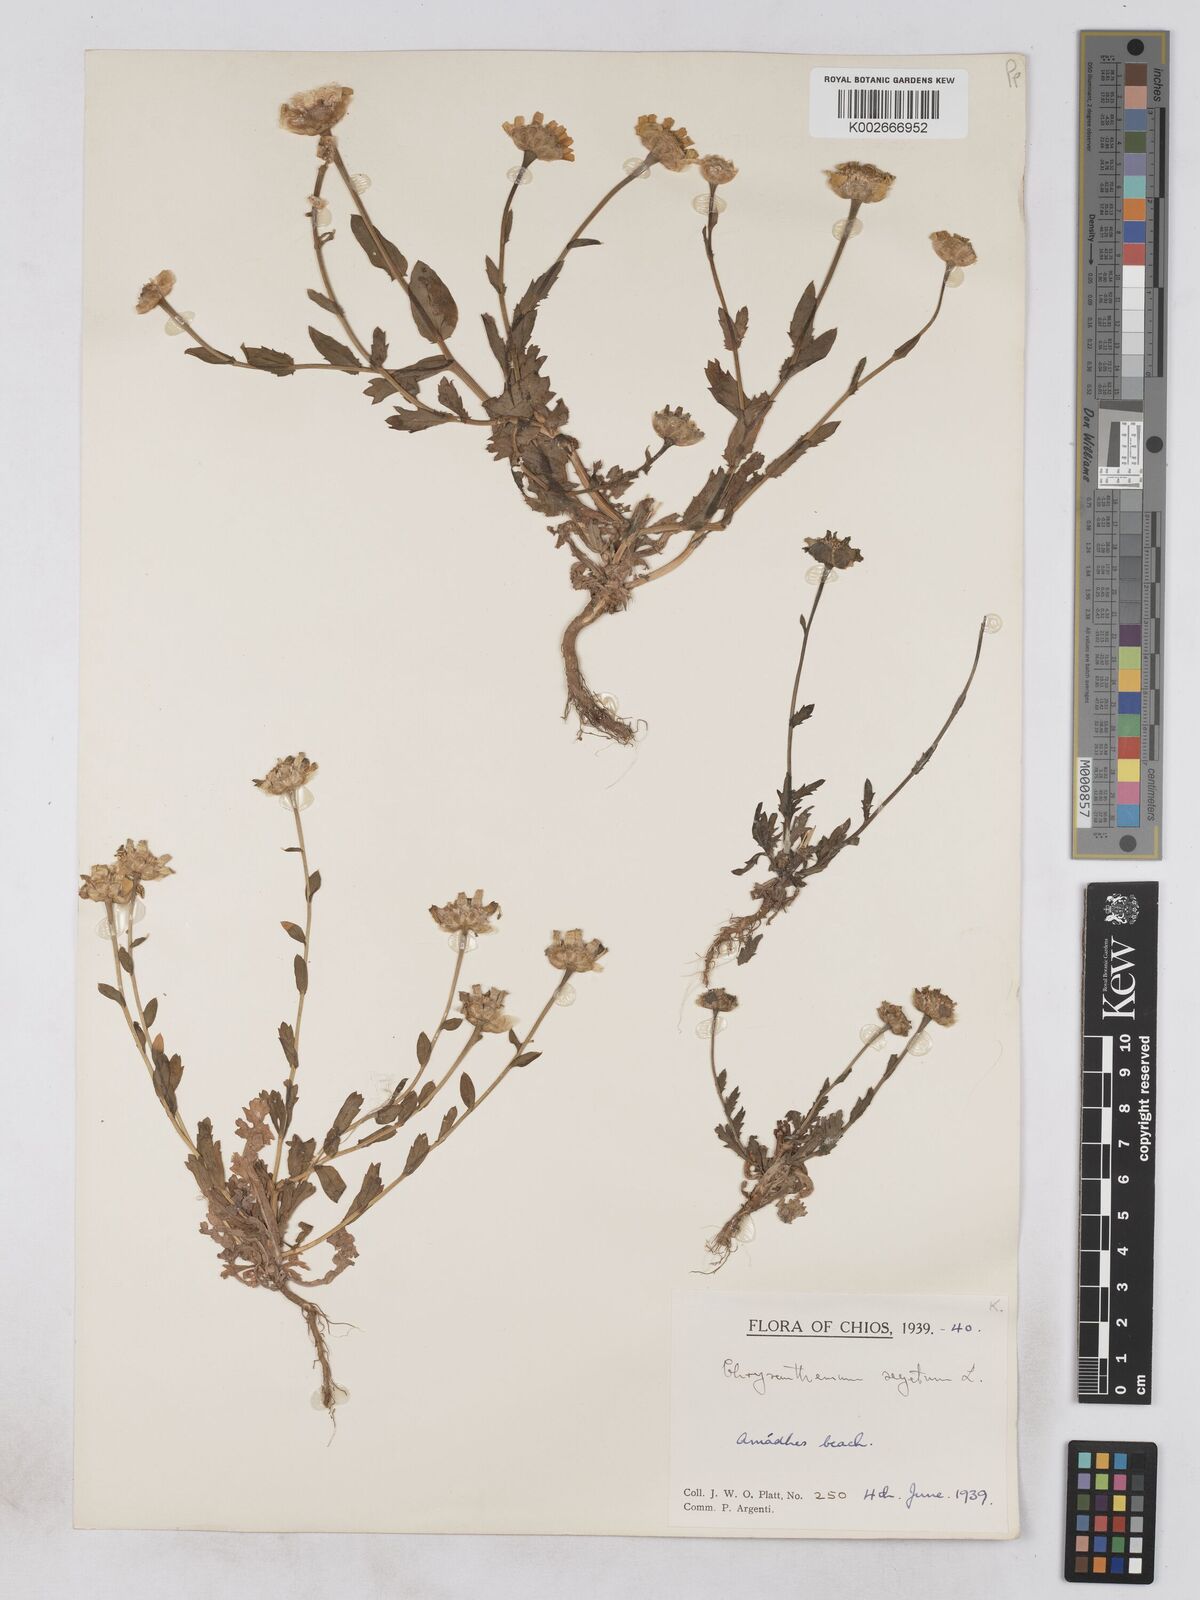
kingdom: Plantae
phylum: Tracheophyta
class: Magnoliopsida
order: Asterales
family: Asteraceae
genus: Glebionis
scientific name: Glebionis segetum
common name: Corndaisy
